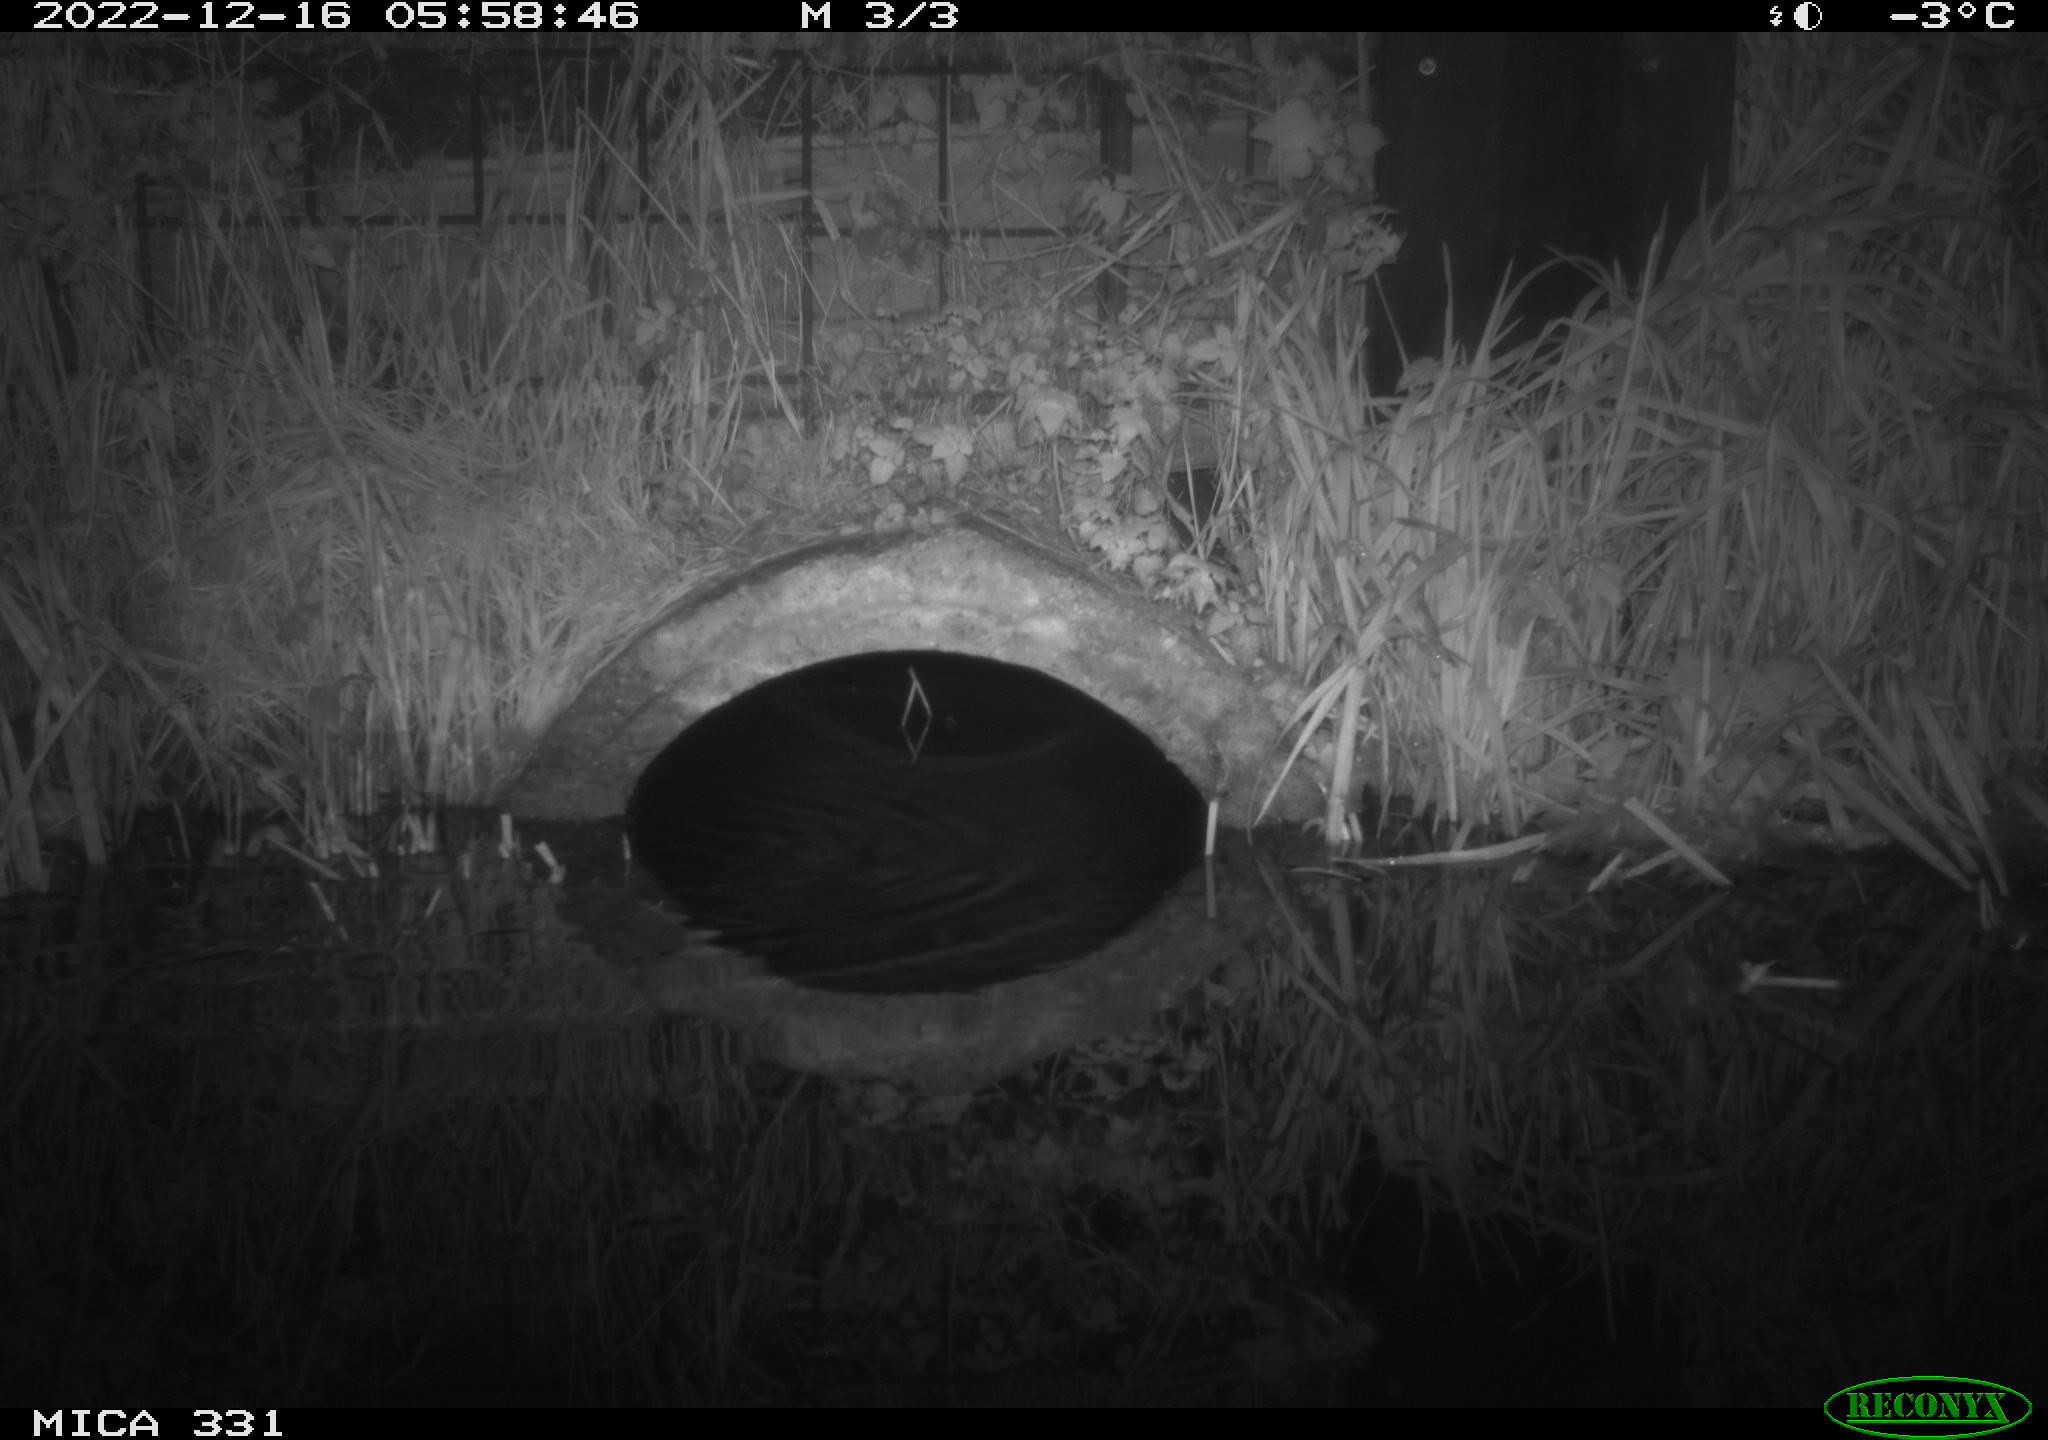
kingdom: Animalia
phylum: Chordata
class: Mammalia
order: Rodentia
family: Muridae
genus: Rattus
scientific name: Rattus norvegicus
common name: Brown rat
